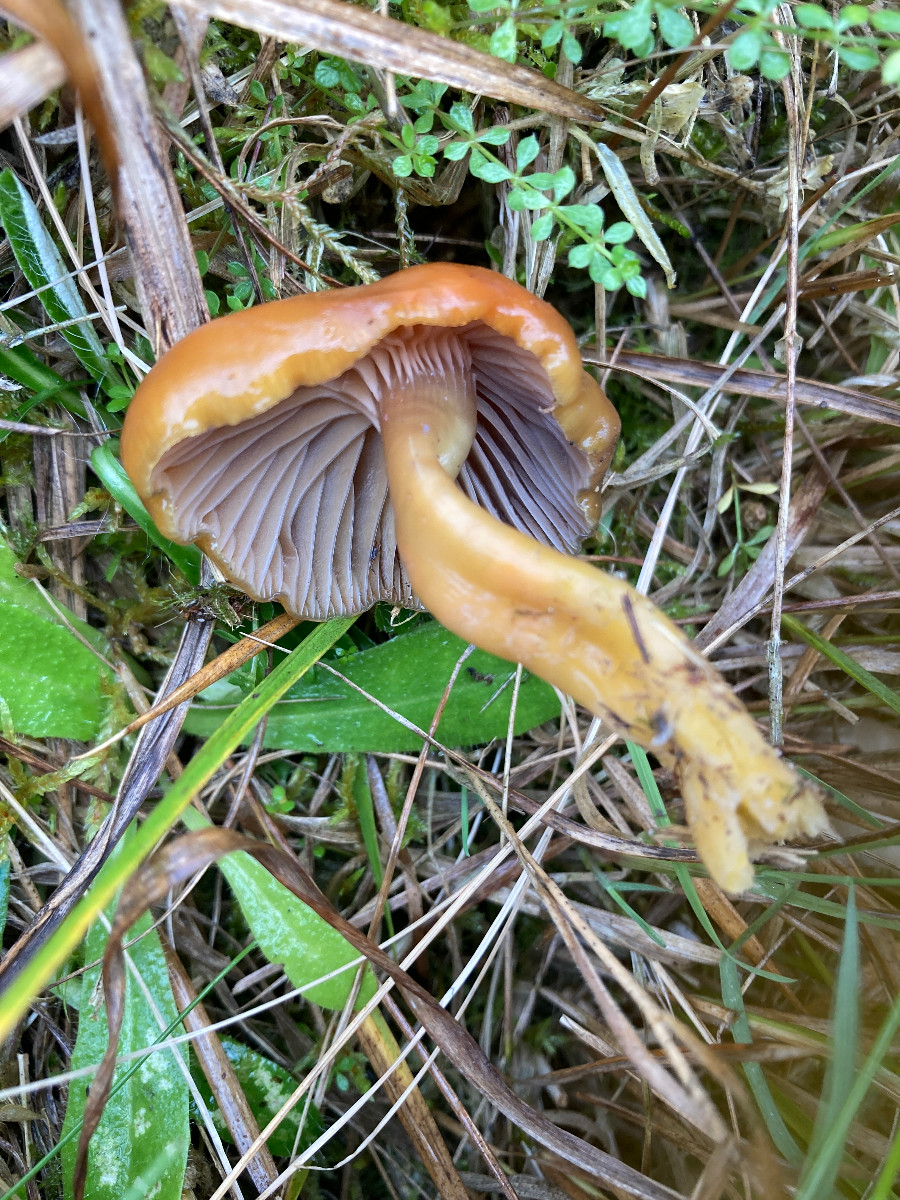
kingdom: Fungi
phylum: Basidiomycota
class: Agaricomycetes
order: Agaricales
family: Hygrophoraceae
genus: Gliophorus
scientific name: Gliophorus laetus
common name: brusk-vokshat
